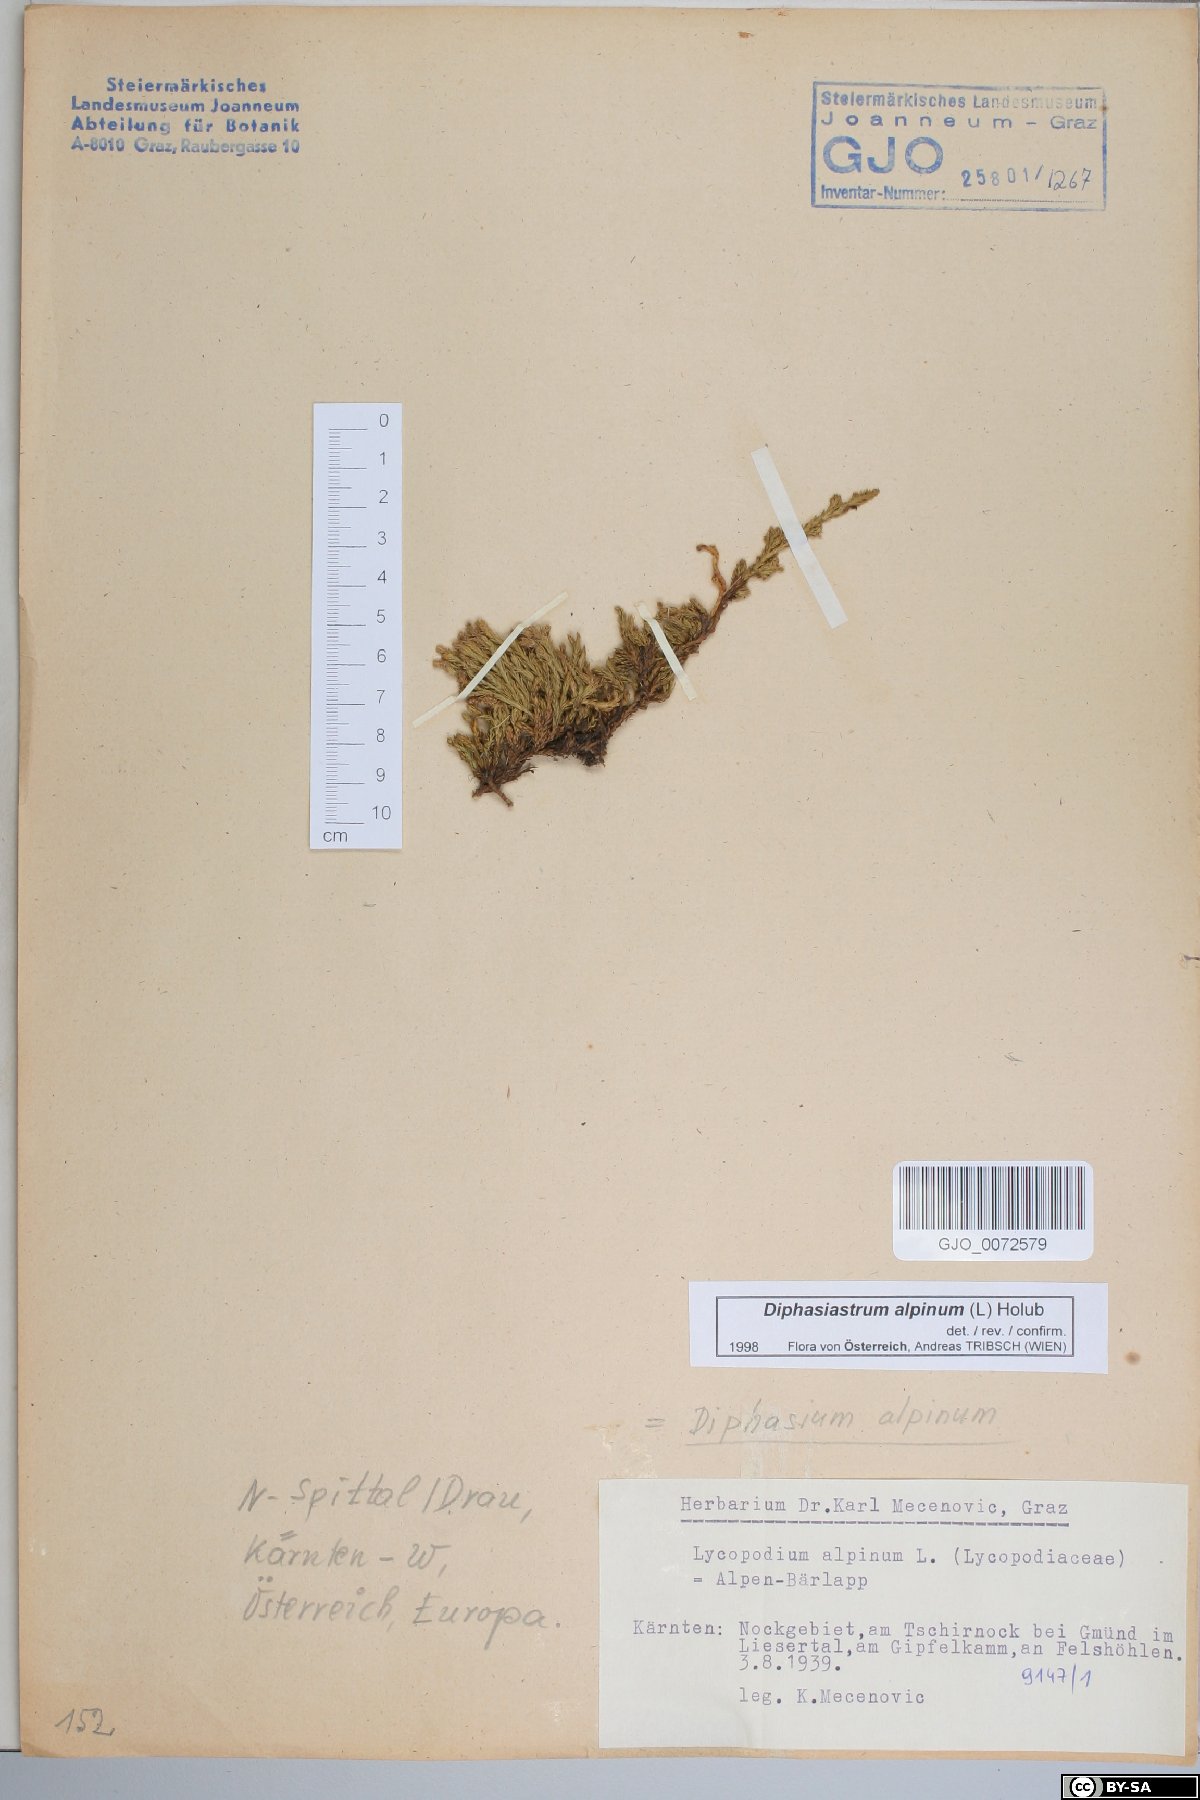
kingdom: Plantae
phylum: Tracheophyta
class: Lycopodiopsida
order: Lycopodiales
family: Lycopodiaceae
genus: Diphasiastrum
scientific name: Diphasiastrum alpinum
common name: Alpine clubmoss
